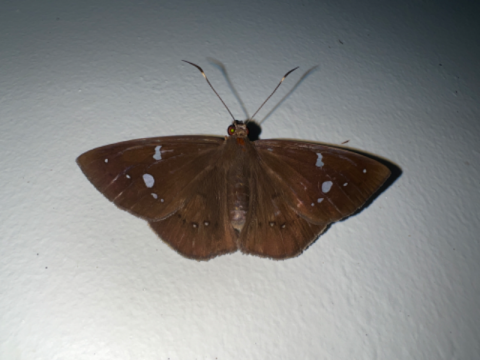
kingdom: Animalia
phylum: Arthropoda
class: Insecta
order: Lepidoptera
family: Hesperiidae
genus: Salatis
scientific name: Salatis salatis
